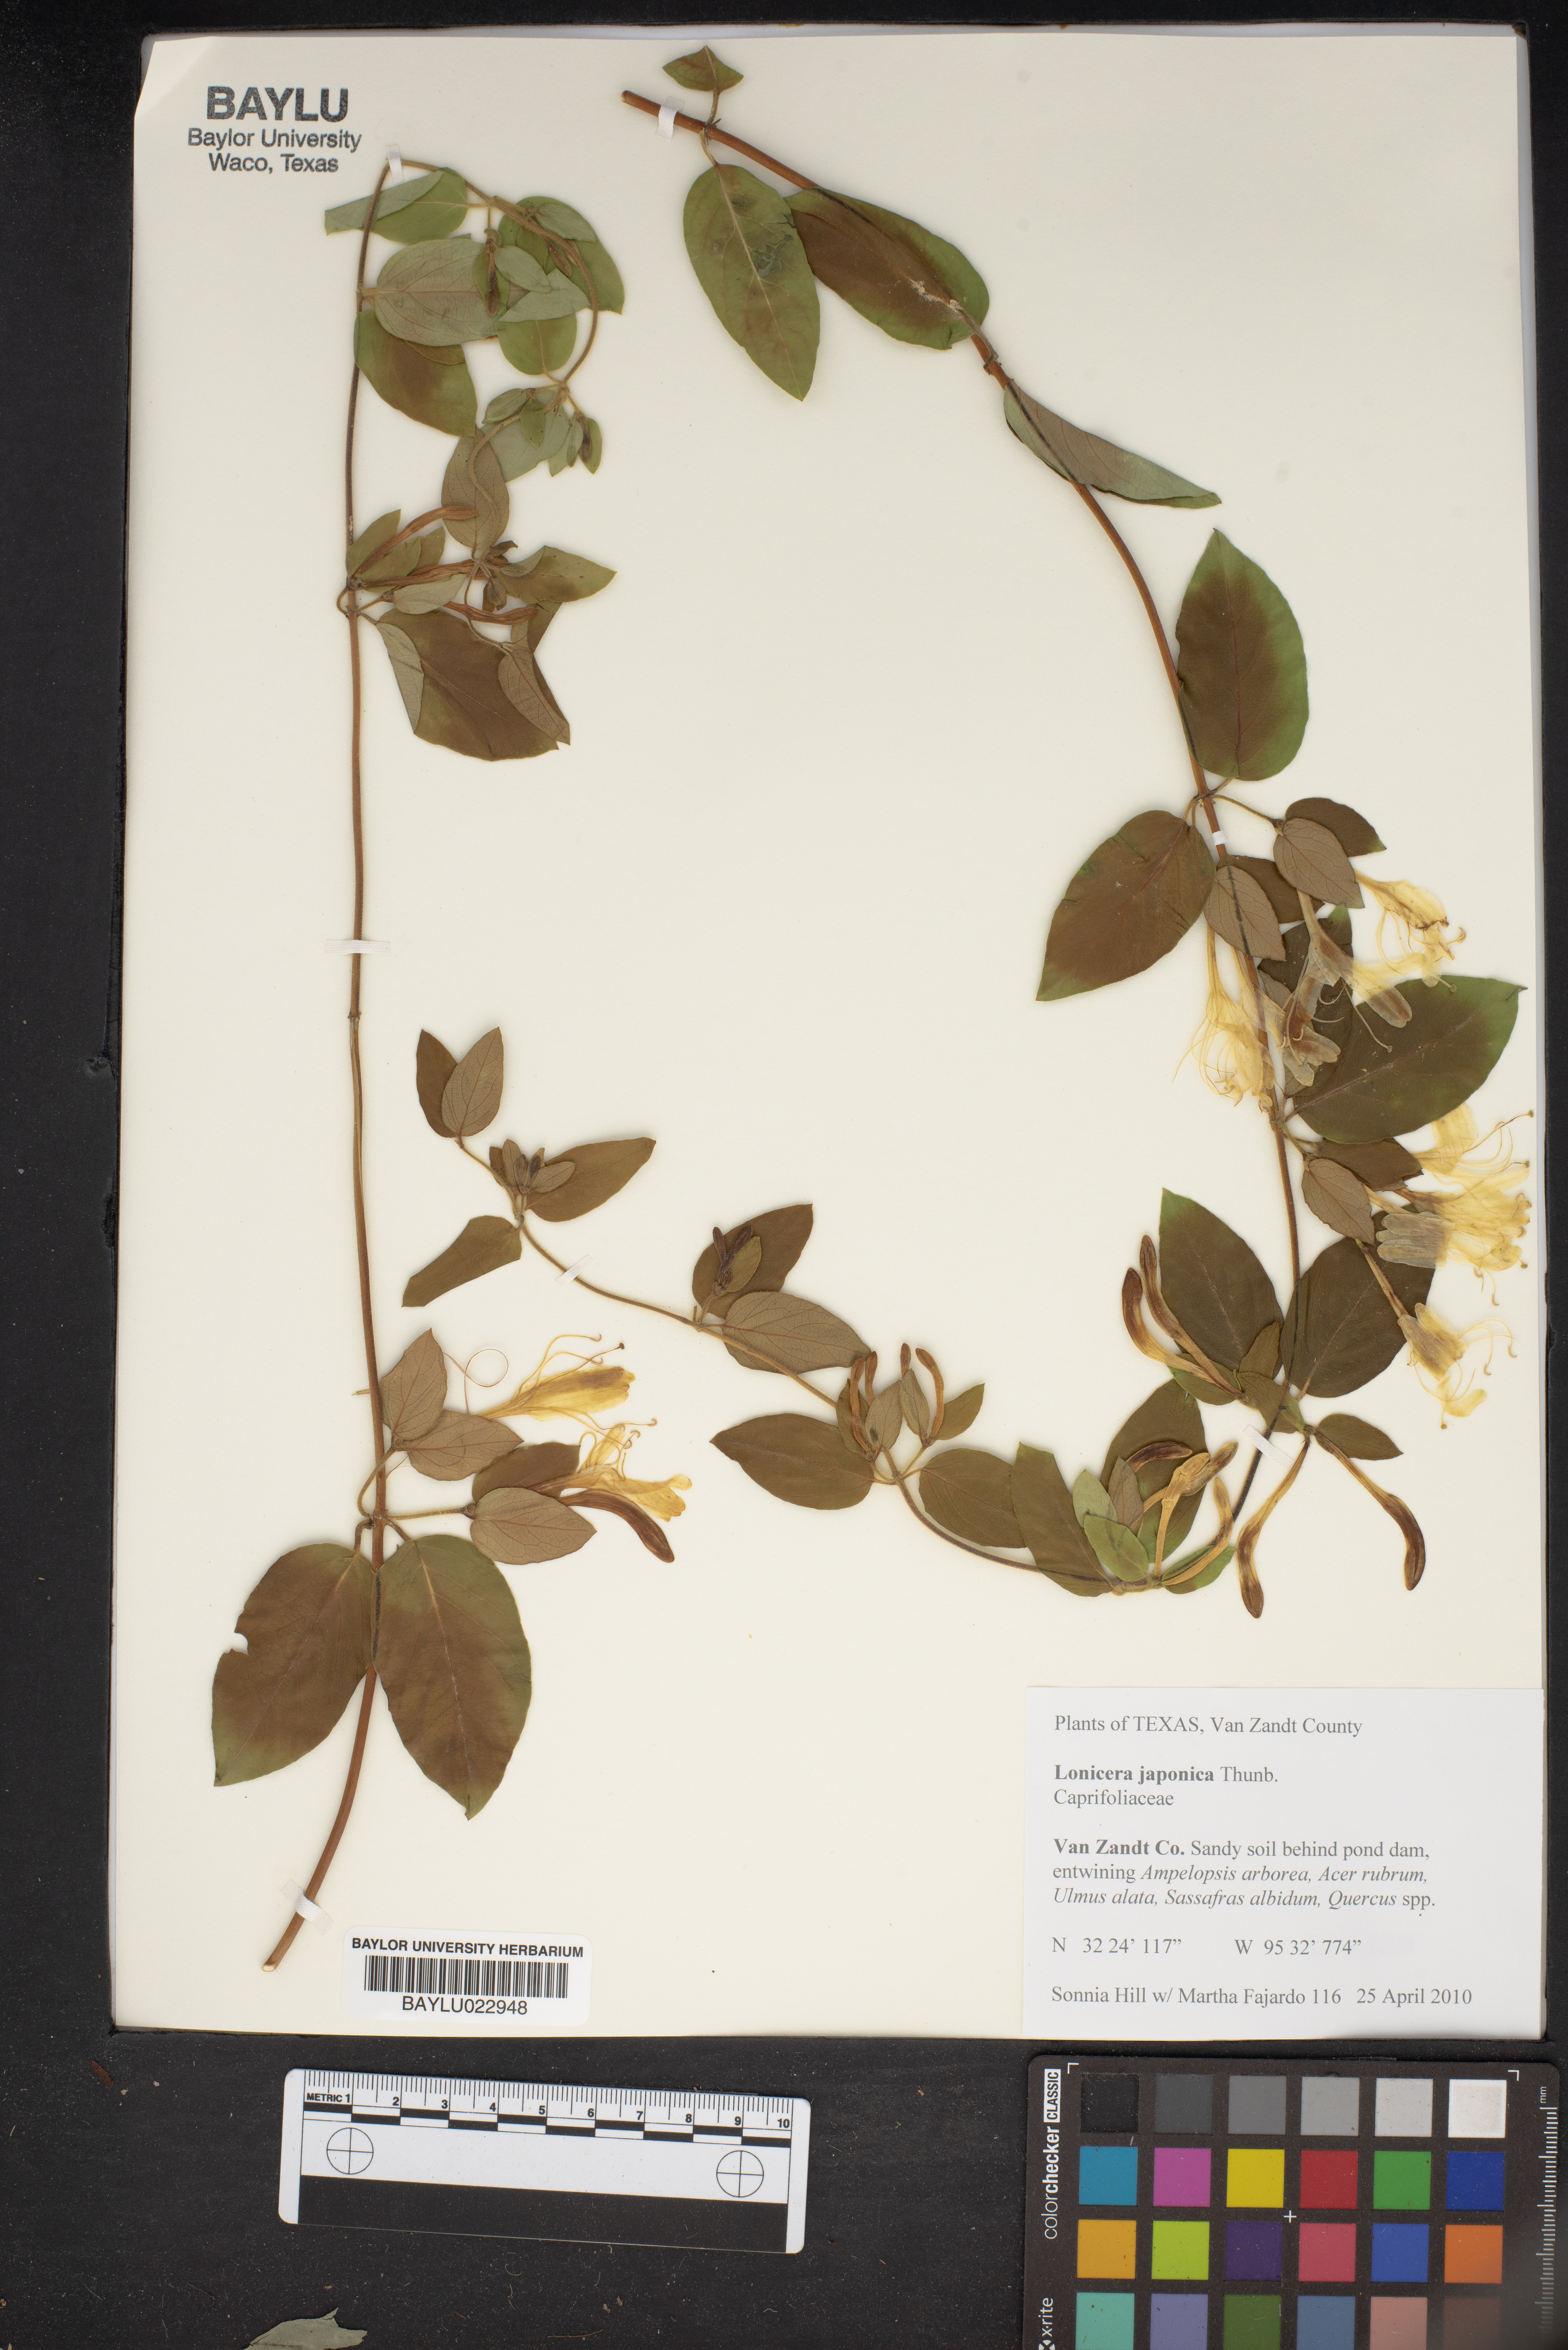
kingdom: Plantae
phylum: Tracheophyta
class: Magnoliopsida
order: Dipsacales
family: Caprifoliaceae
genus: Lonicera
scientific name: Lonicera japonica
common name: Japanese honeysuckle
